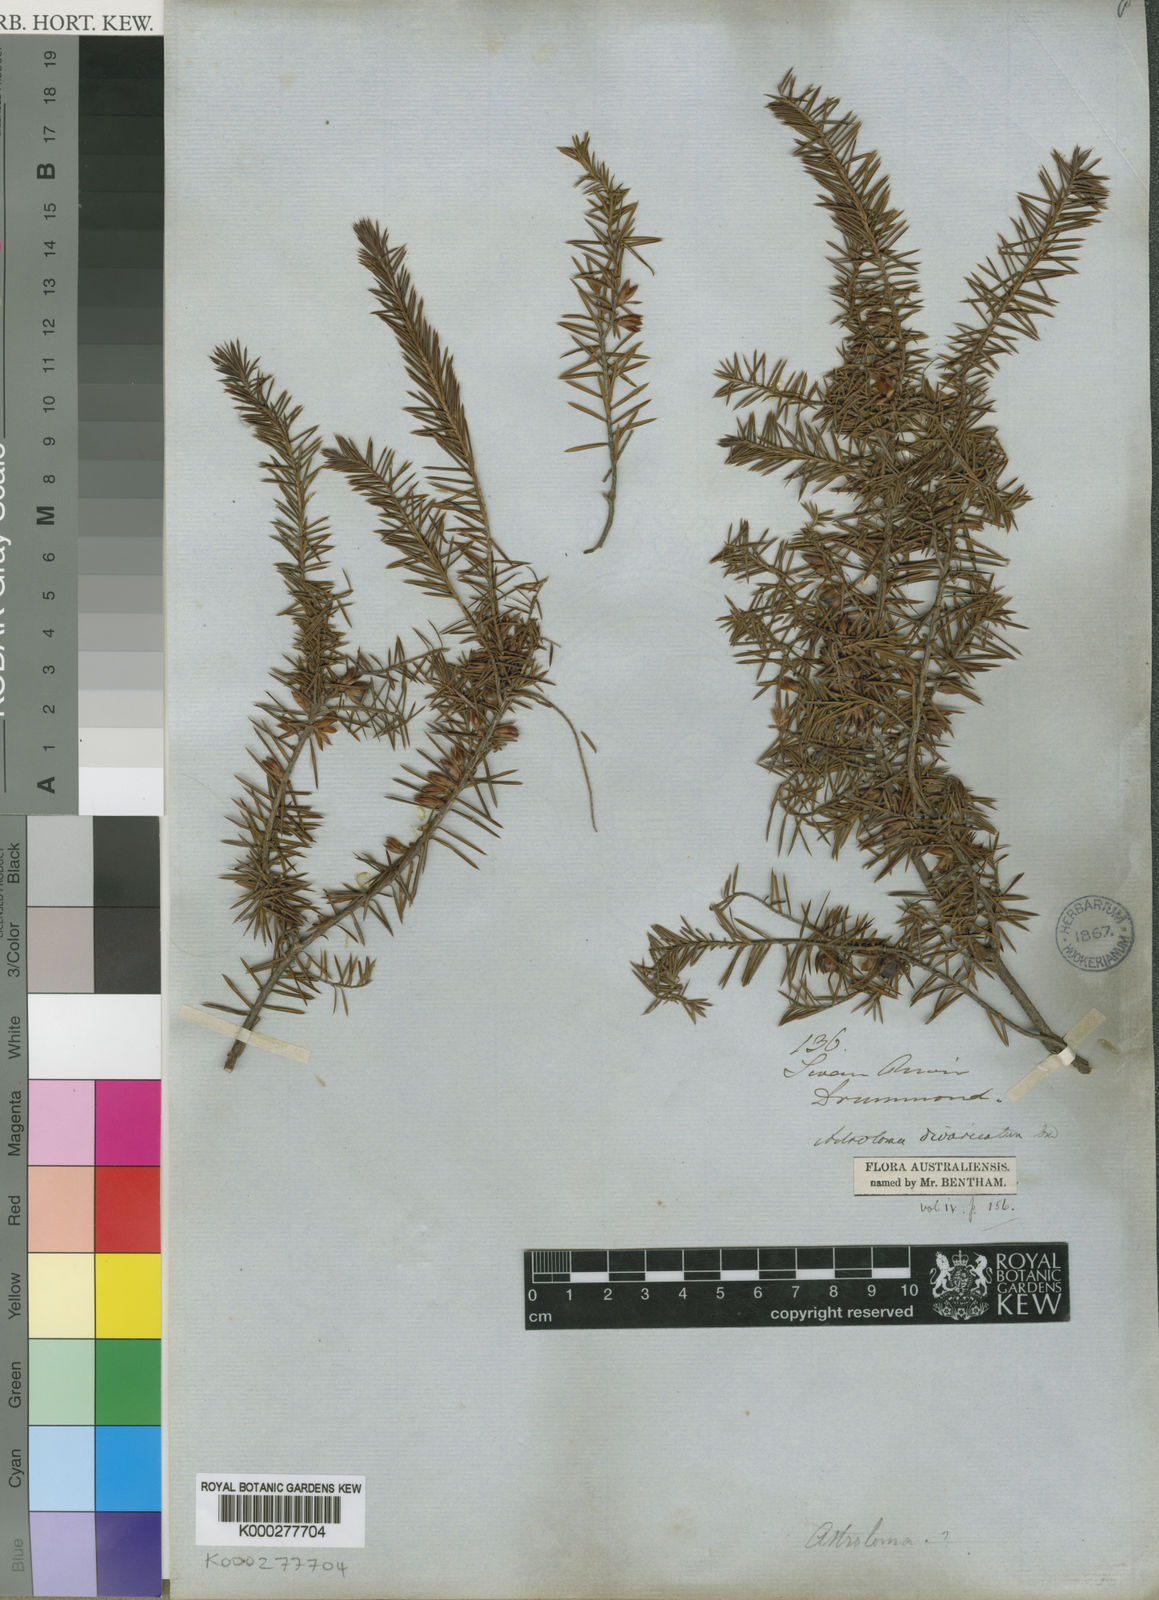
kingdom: Plantae
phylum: Tracheophyta
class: Magnoliopsida
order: Ericales
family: Ericaceae
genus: Styphelia
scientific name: Styphelia
